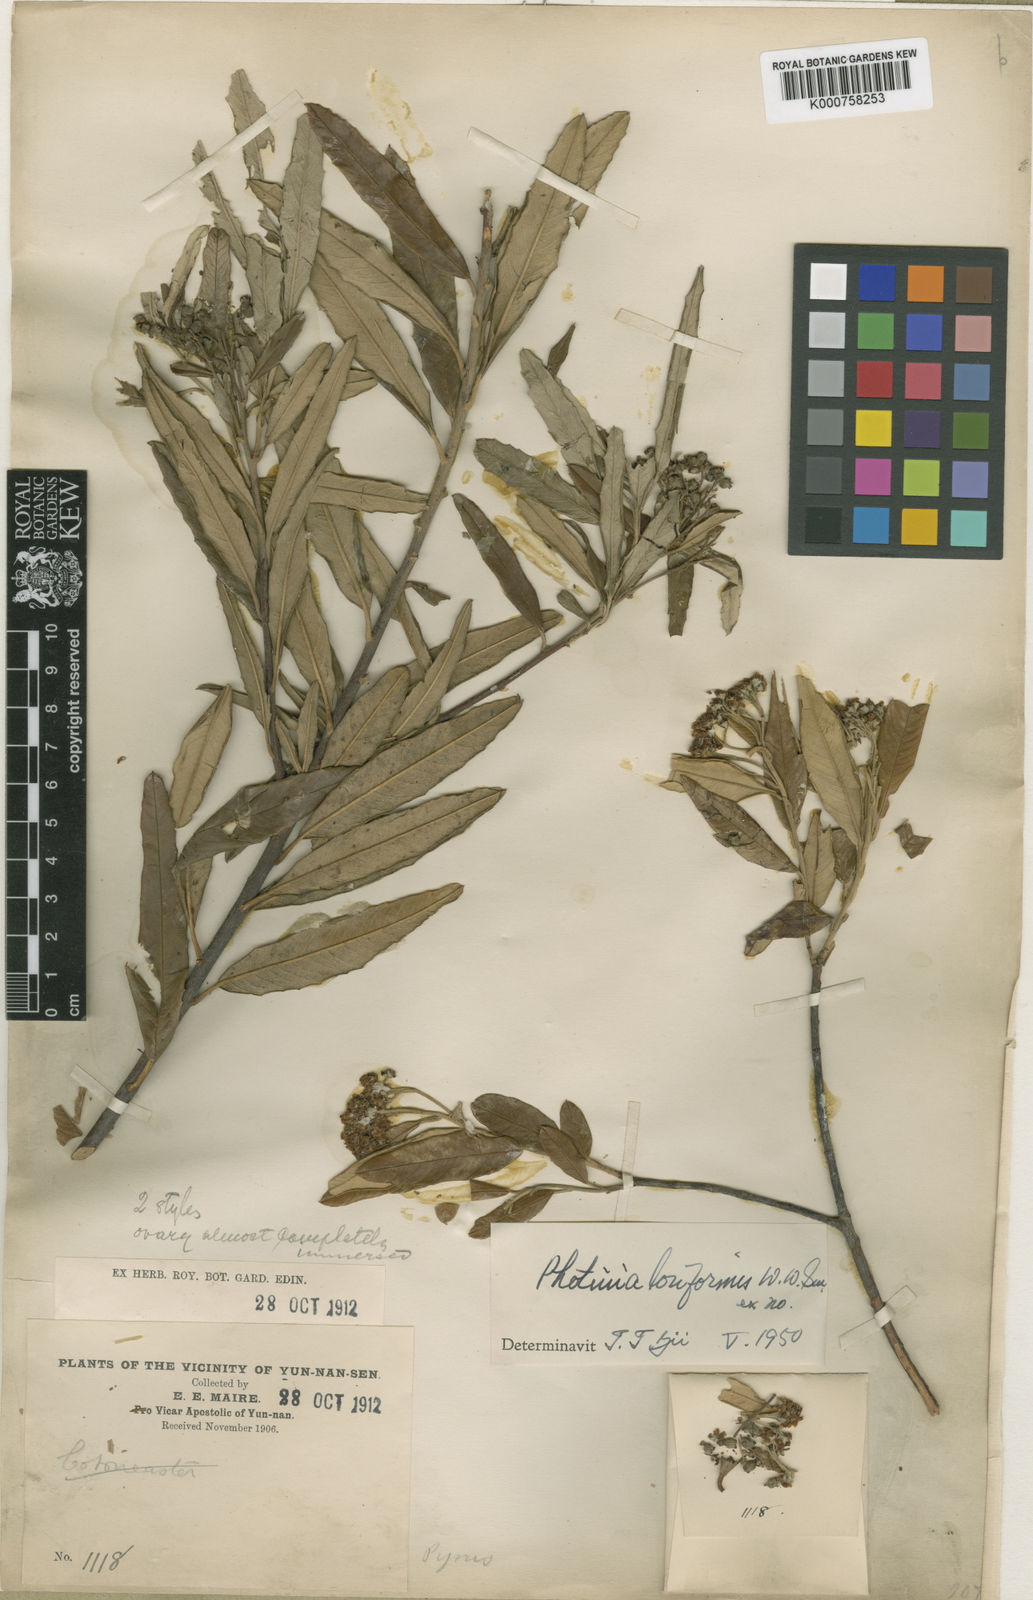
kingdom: Plantae
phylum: Tracheophyta
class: Magnoliopsida
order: Rosales
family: Rosaceae
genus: Photinia
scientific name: Photinia loriformis
